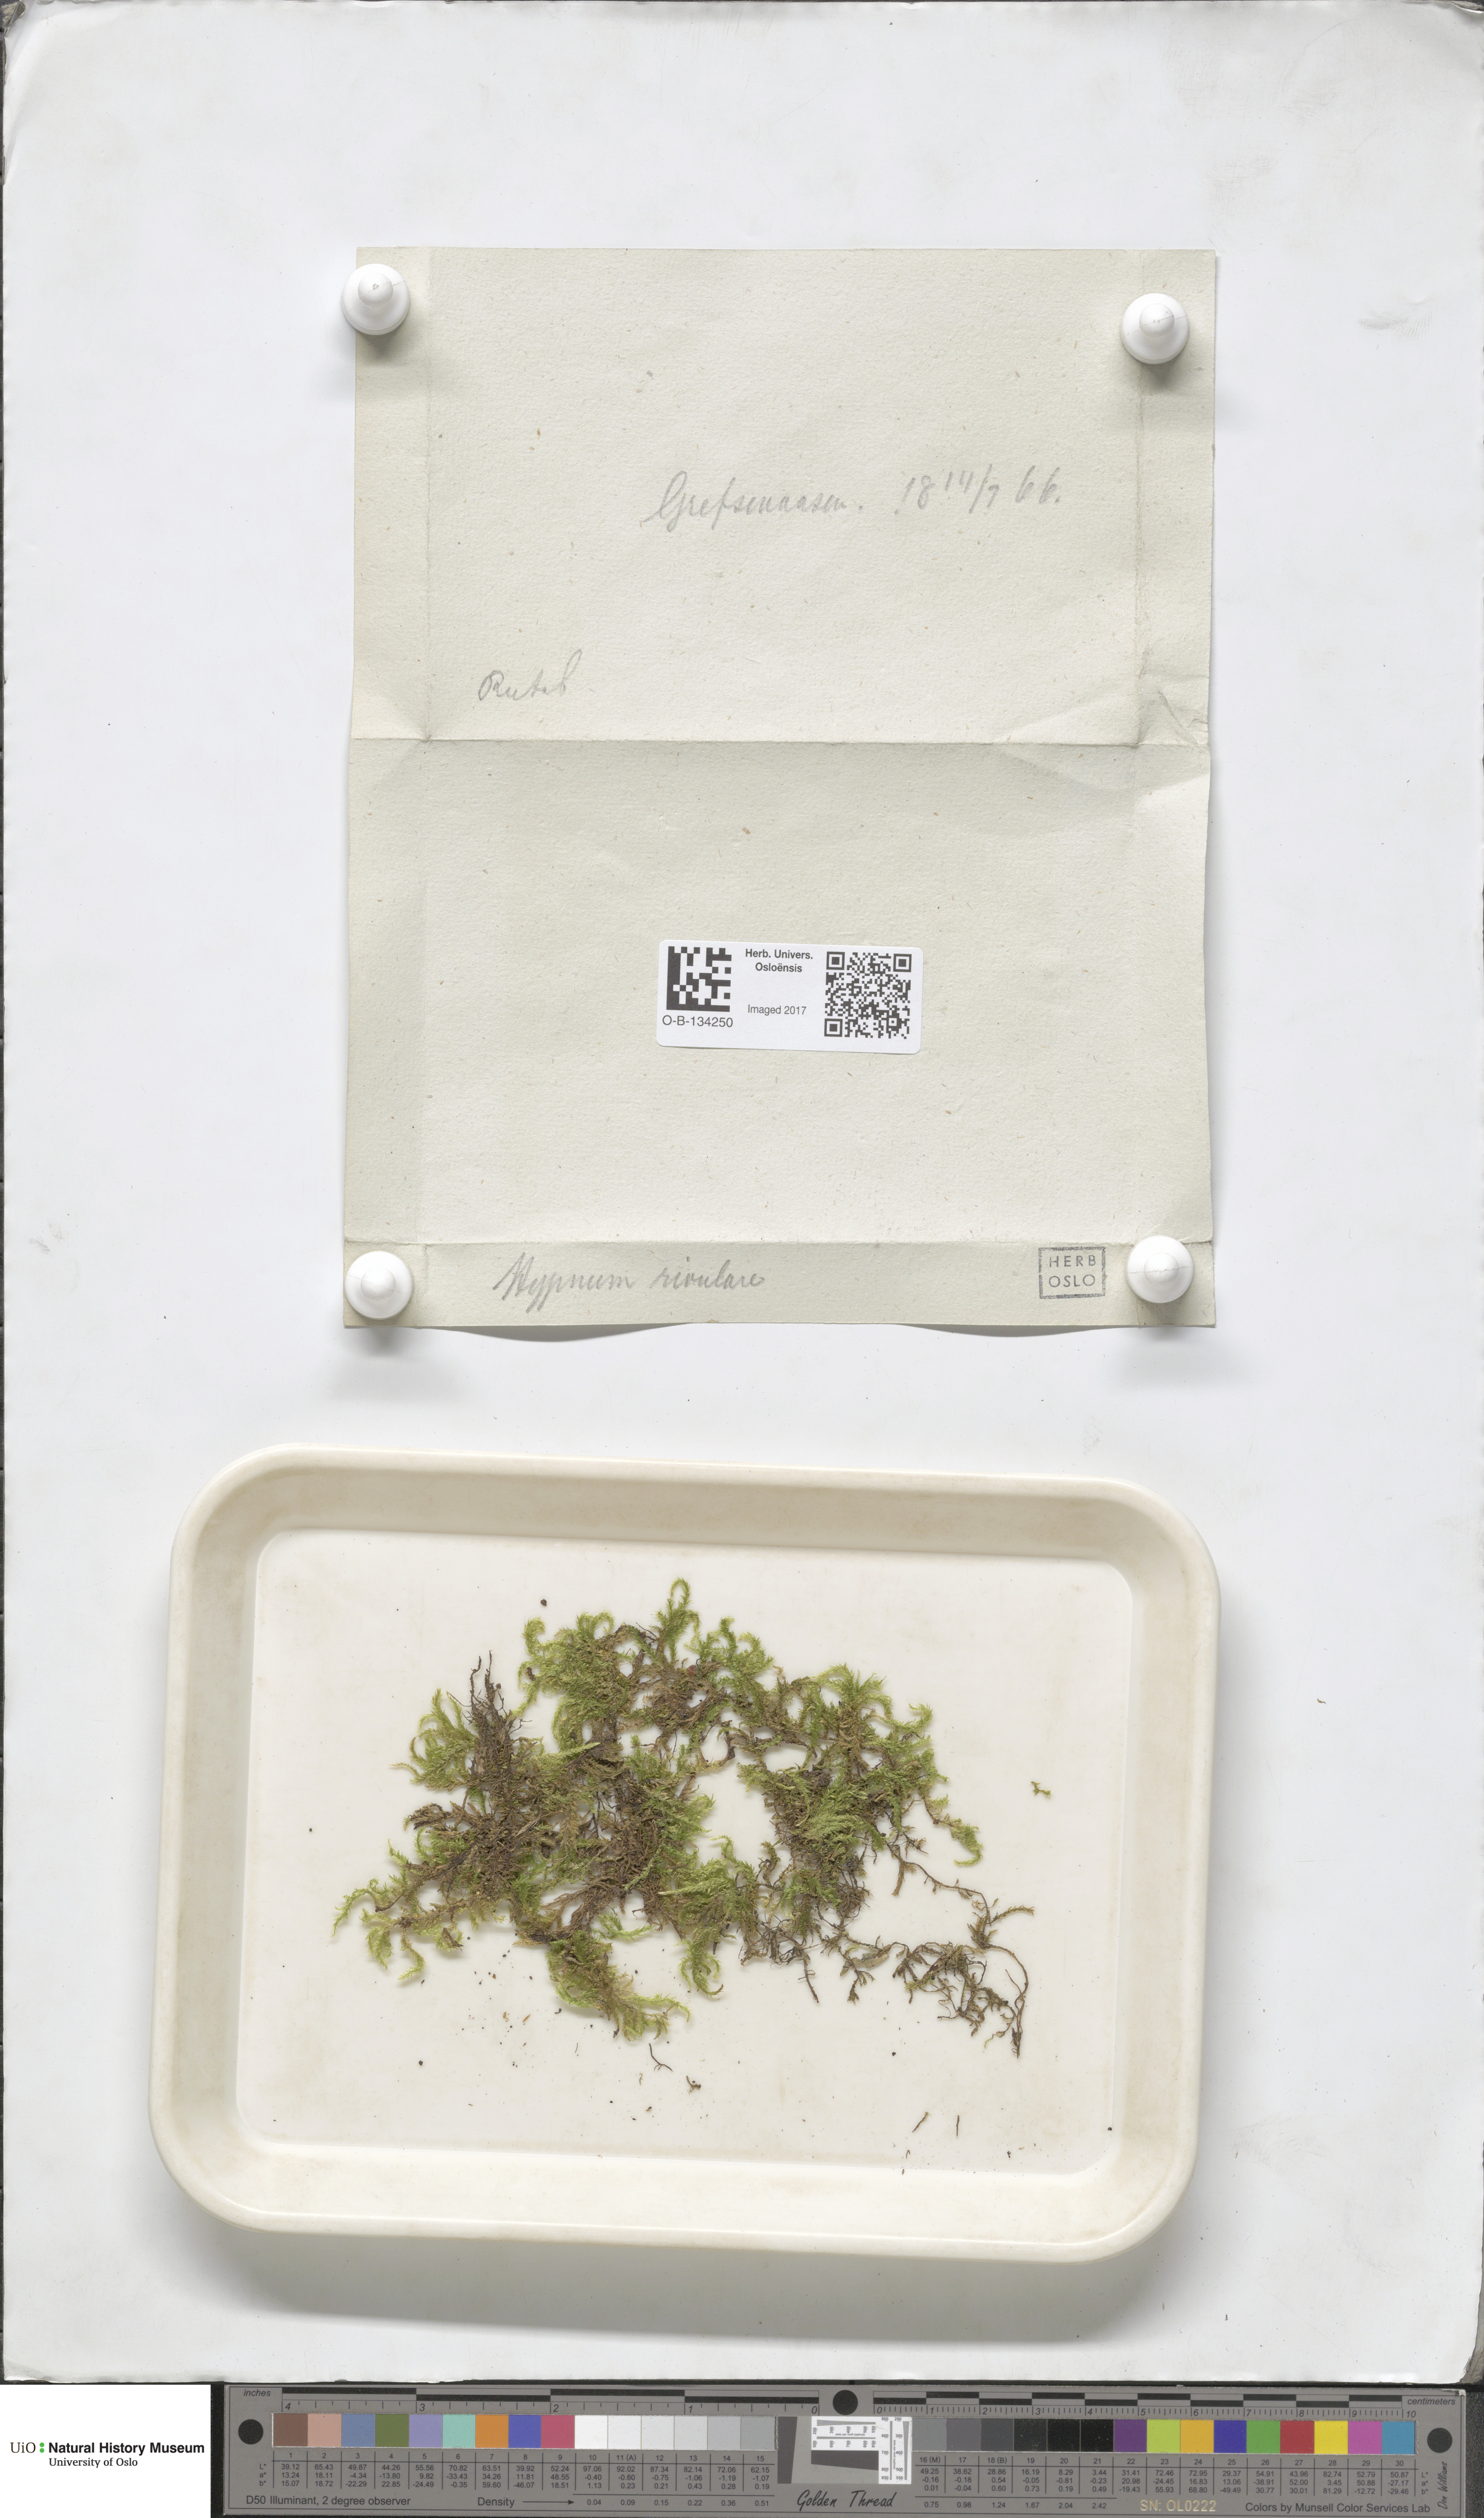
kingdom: Plantae
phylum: Bryophyta
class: Bryopsida
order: Hypnales
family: Brachytheciaceae
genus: Brachythecium
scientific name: Brachythecium rivulare
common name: River ragged moss
